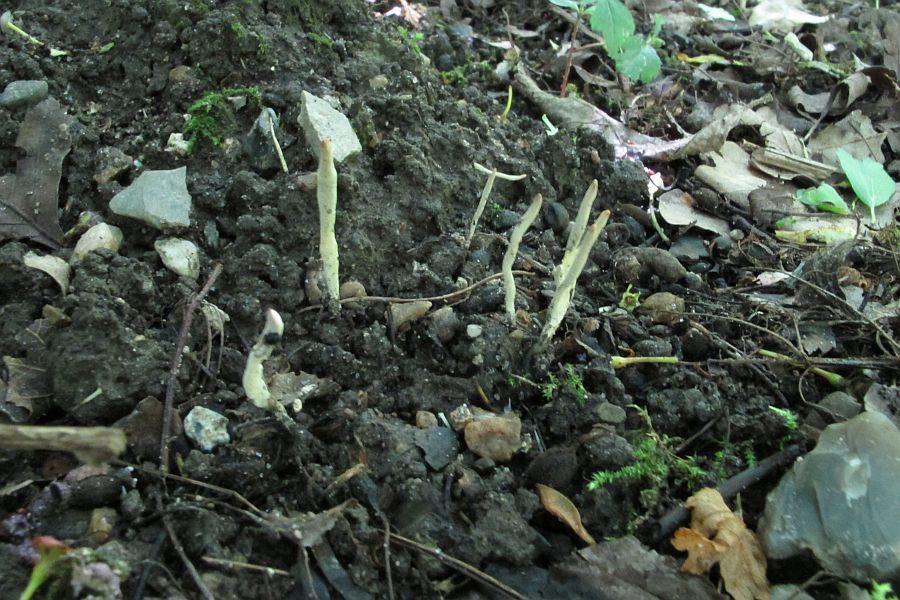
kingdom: Fungi
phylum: Ascomycota
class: Sordariomycetes
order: Xylariales
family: Xylariaceae
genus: Xylaria
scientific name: Xylaria oxyacanthae
